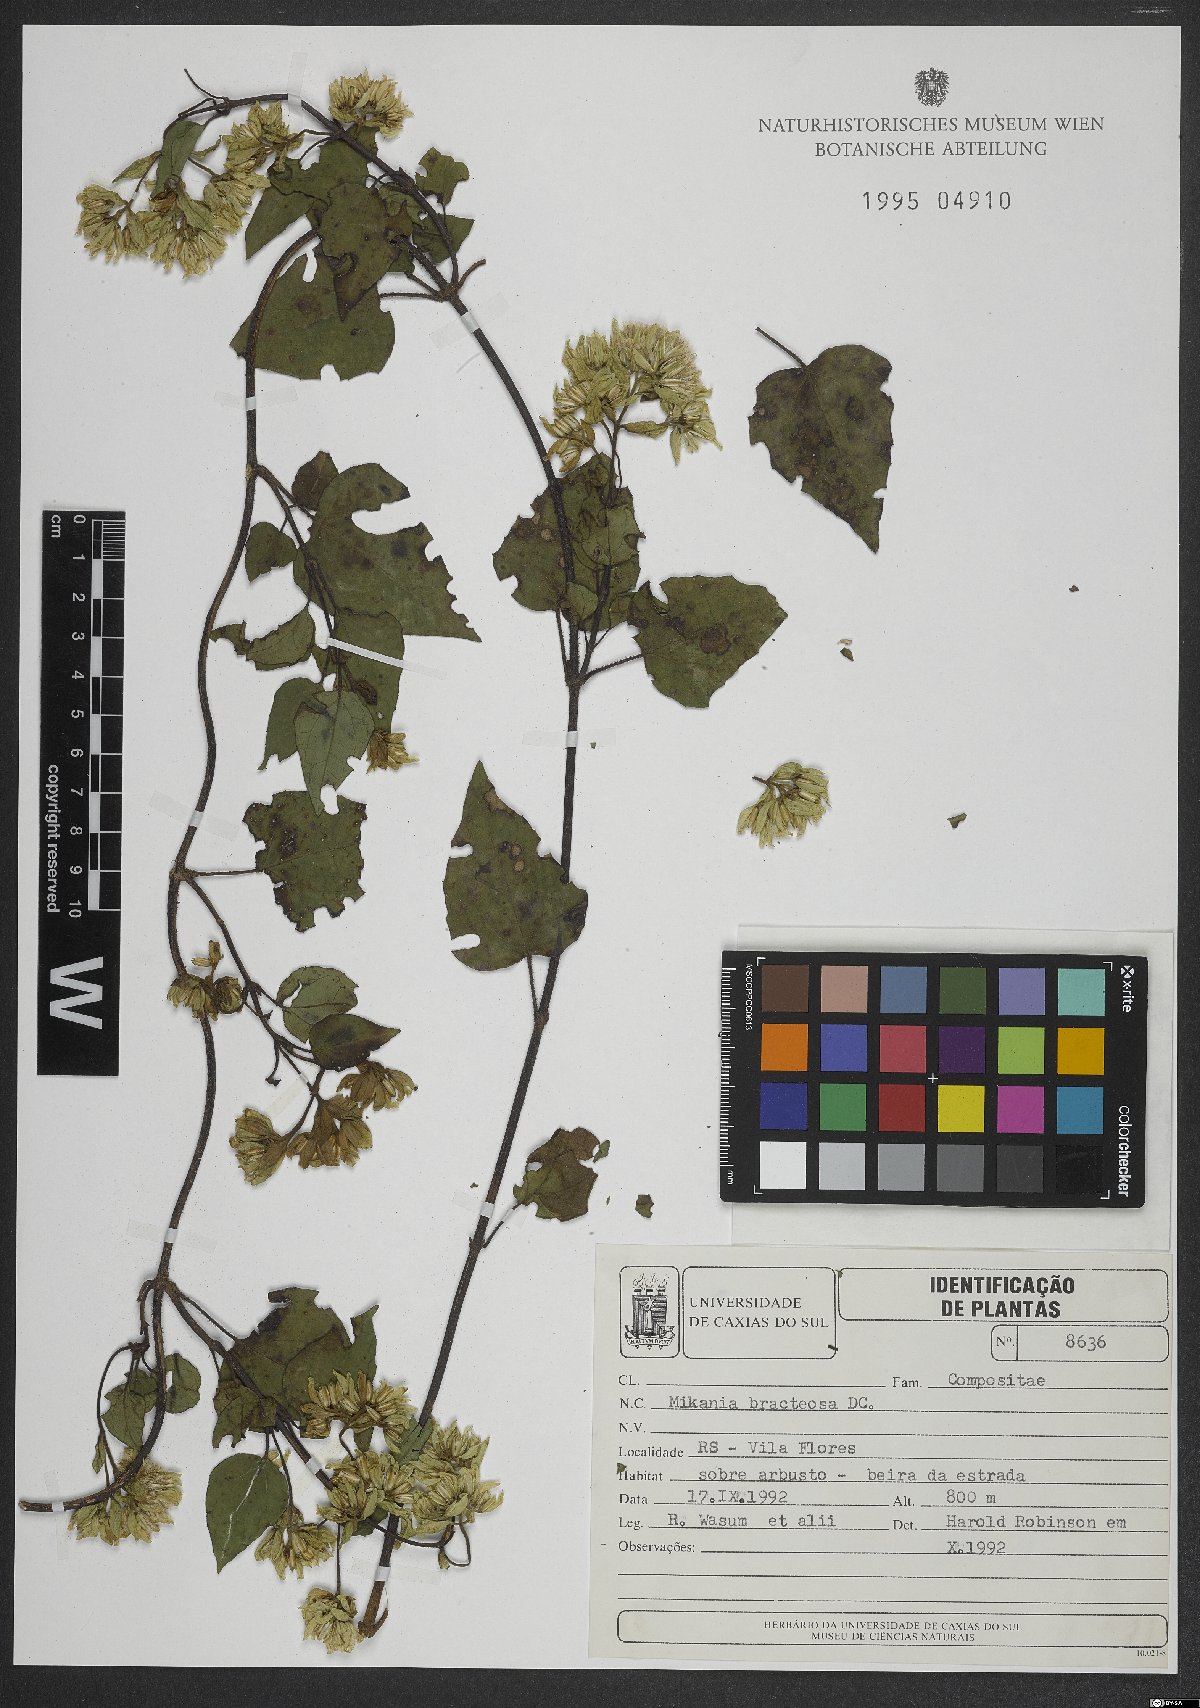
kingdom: Plantae
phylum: Tracheophyta
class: Magnoliopsida
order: Asterales
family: Asteraceae
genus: Mikania
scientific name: Mikania involucrata
